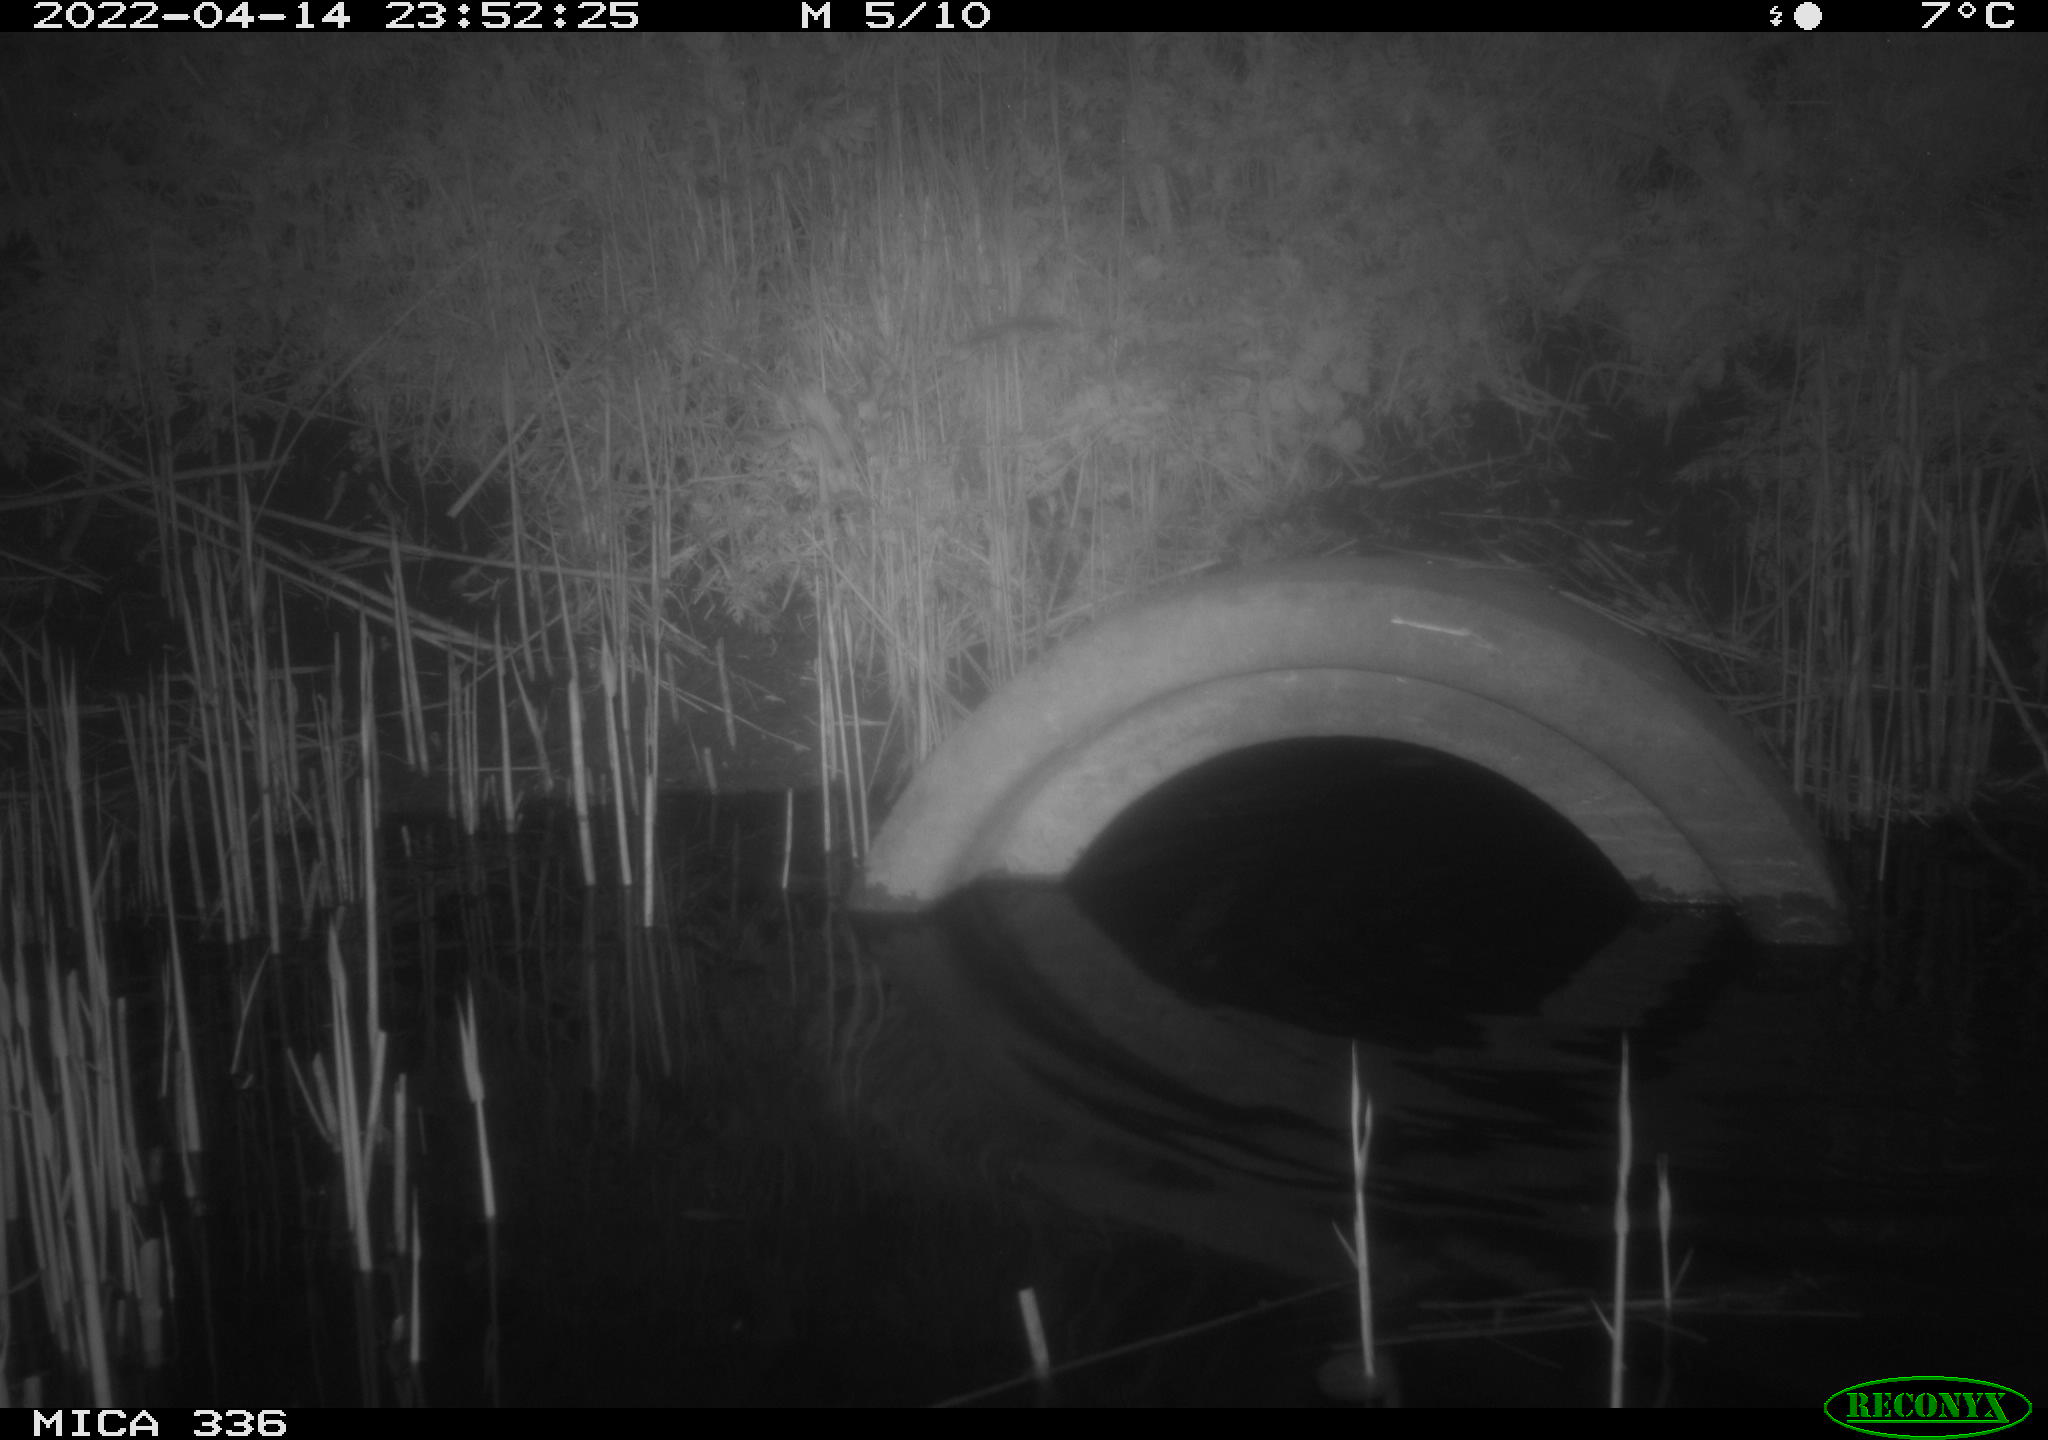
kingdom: Animalia
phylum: Chordata
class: Aves
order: Pelecaniformes
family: Ardeidae
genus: Ardea
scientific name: Ardea cinerea
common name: Grey heron
